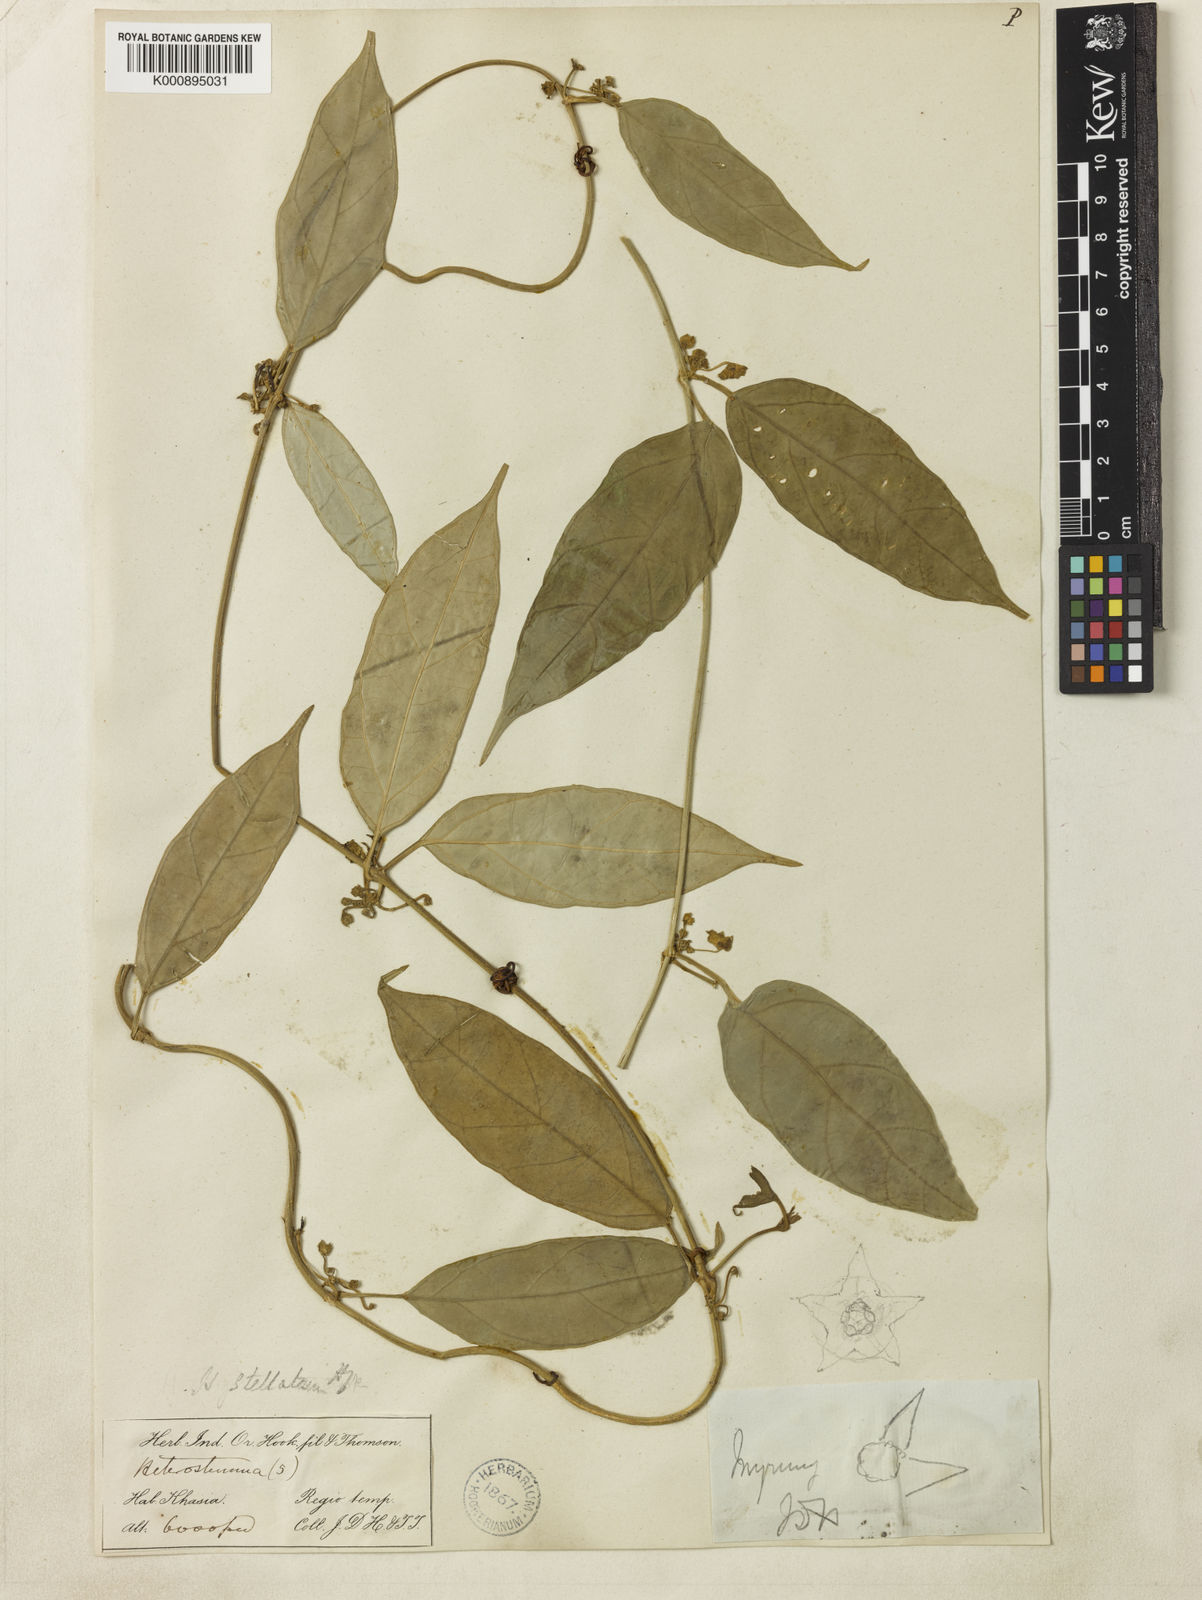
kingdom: Plantae
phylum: Tracheophyta
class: Magnoliopsida
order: Gentianales
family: Apocynaceae
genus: Heterostemma
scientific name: Heterostemma stellatum
